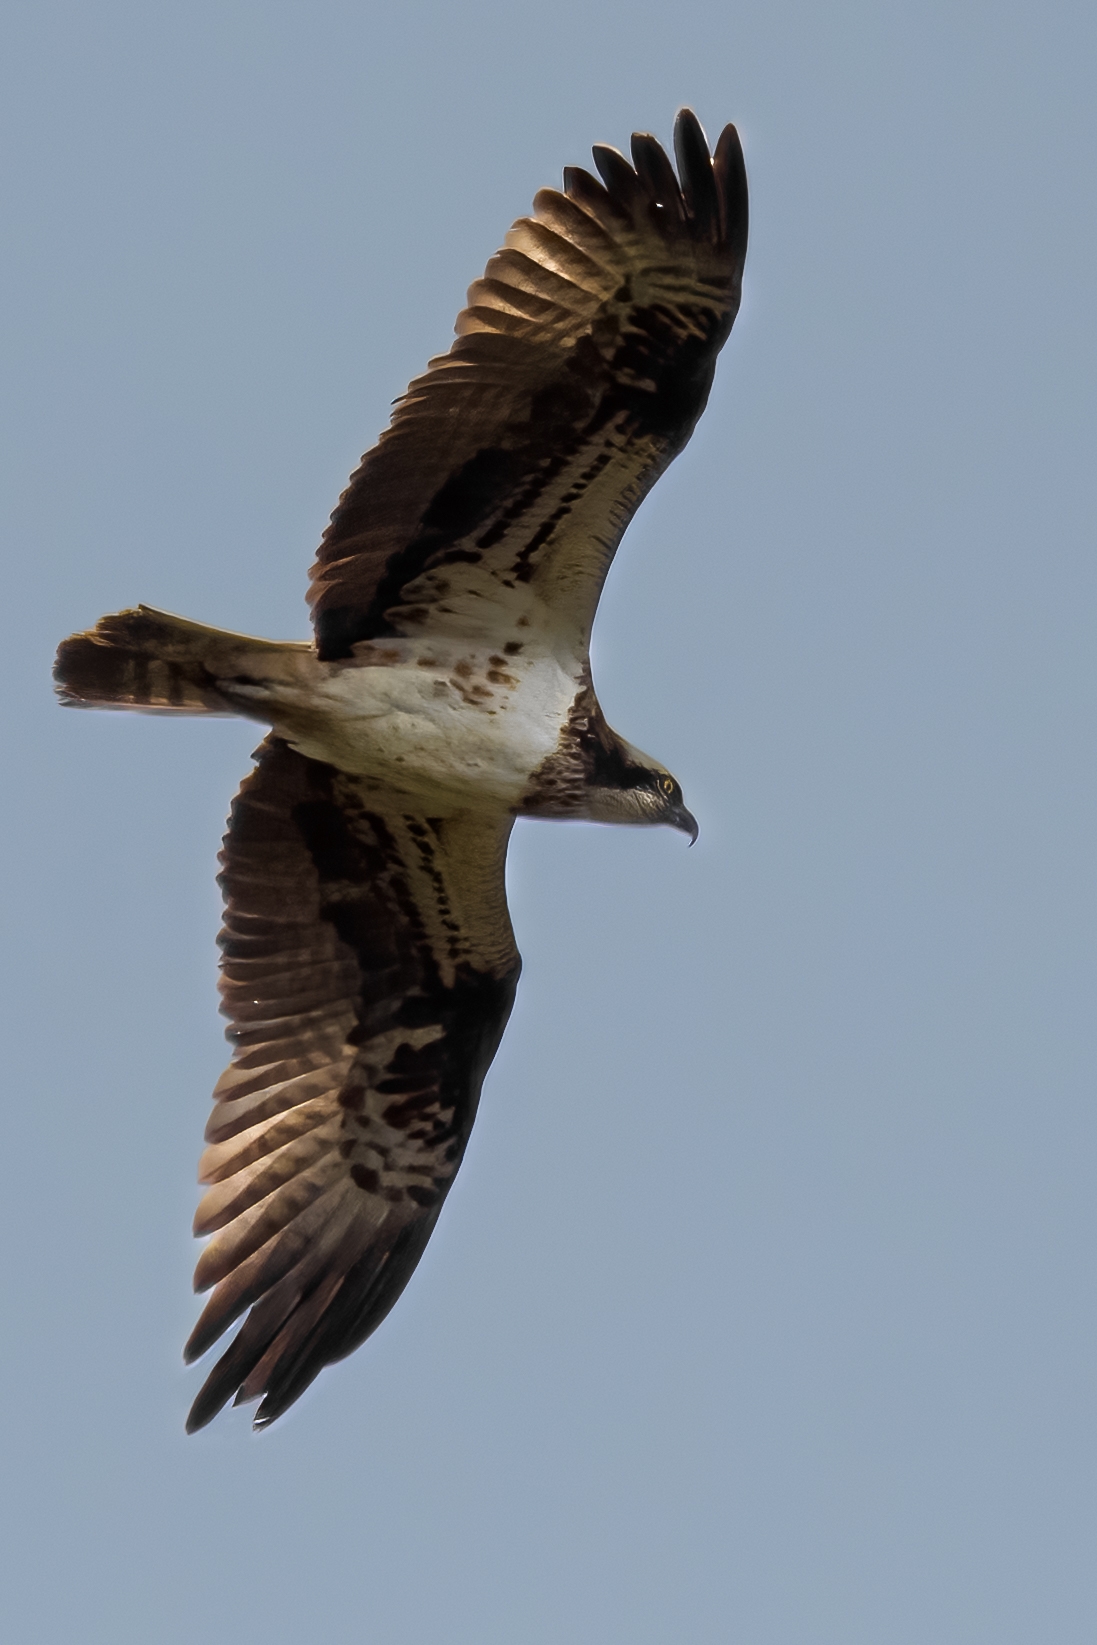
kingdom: Animalia
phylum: Chordata
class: Aves
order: Accipitriformes
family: Pandionidae
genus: Pandion
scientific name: Pandion haliaetus
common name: Fiskeørn
